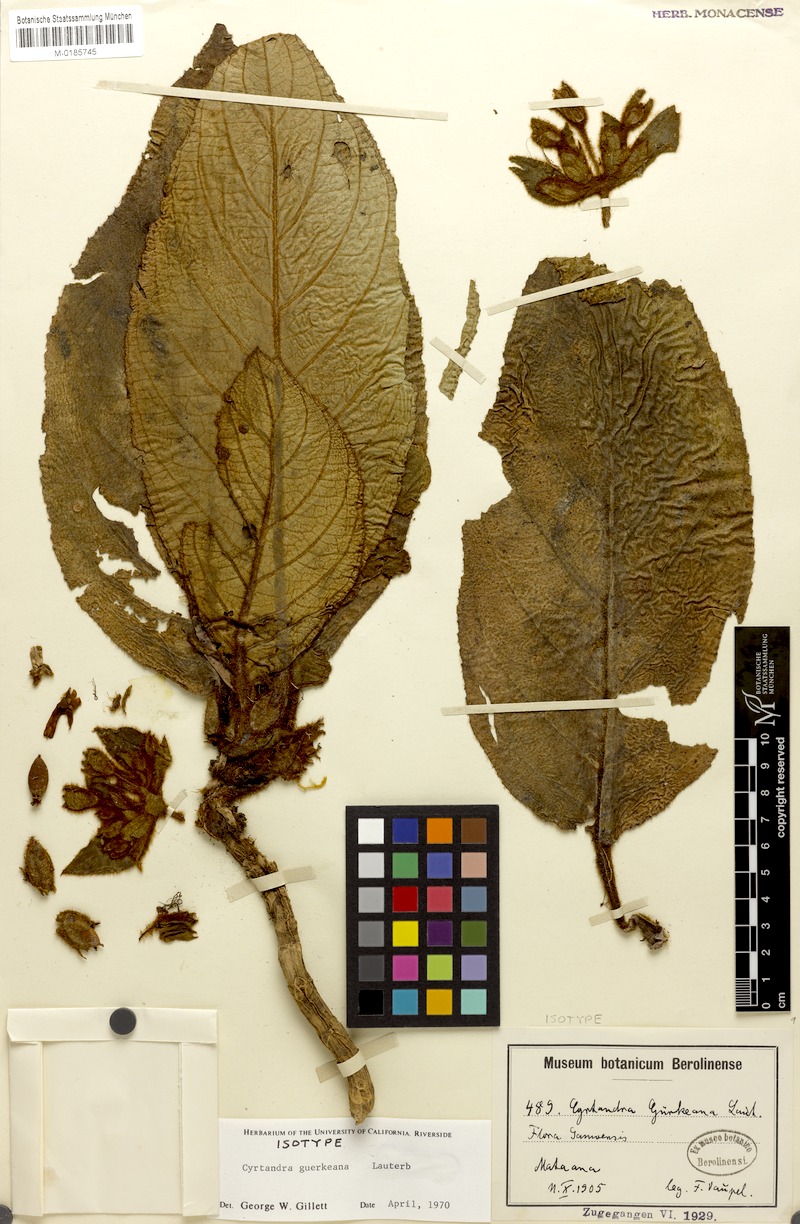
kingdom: Plantae
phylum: Tracheophyta
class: Magnoliopsida
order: Lamiales
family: Gesneriaceae
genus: Cyrtandra
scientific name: Cyrtandra guerkeana
